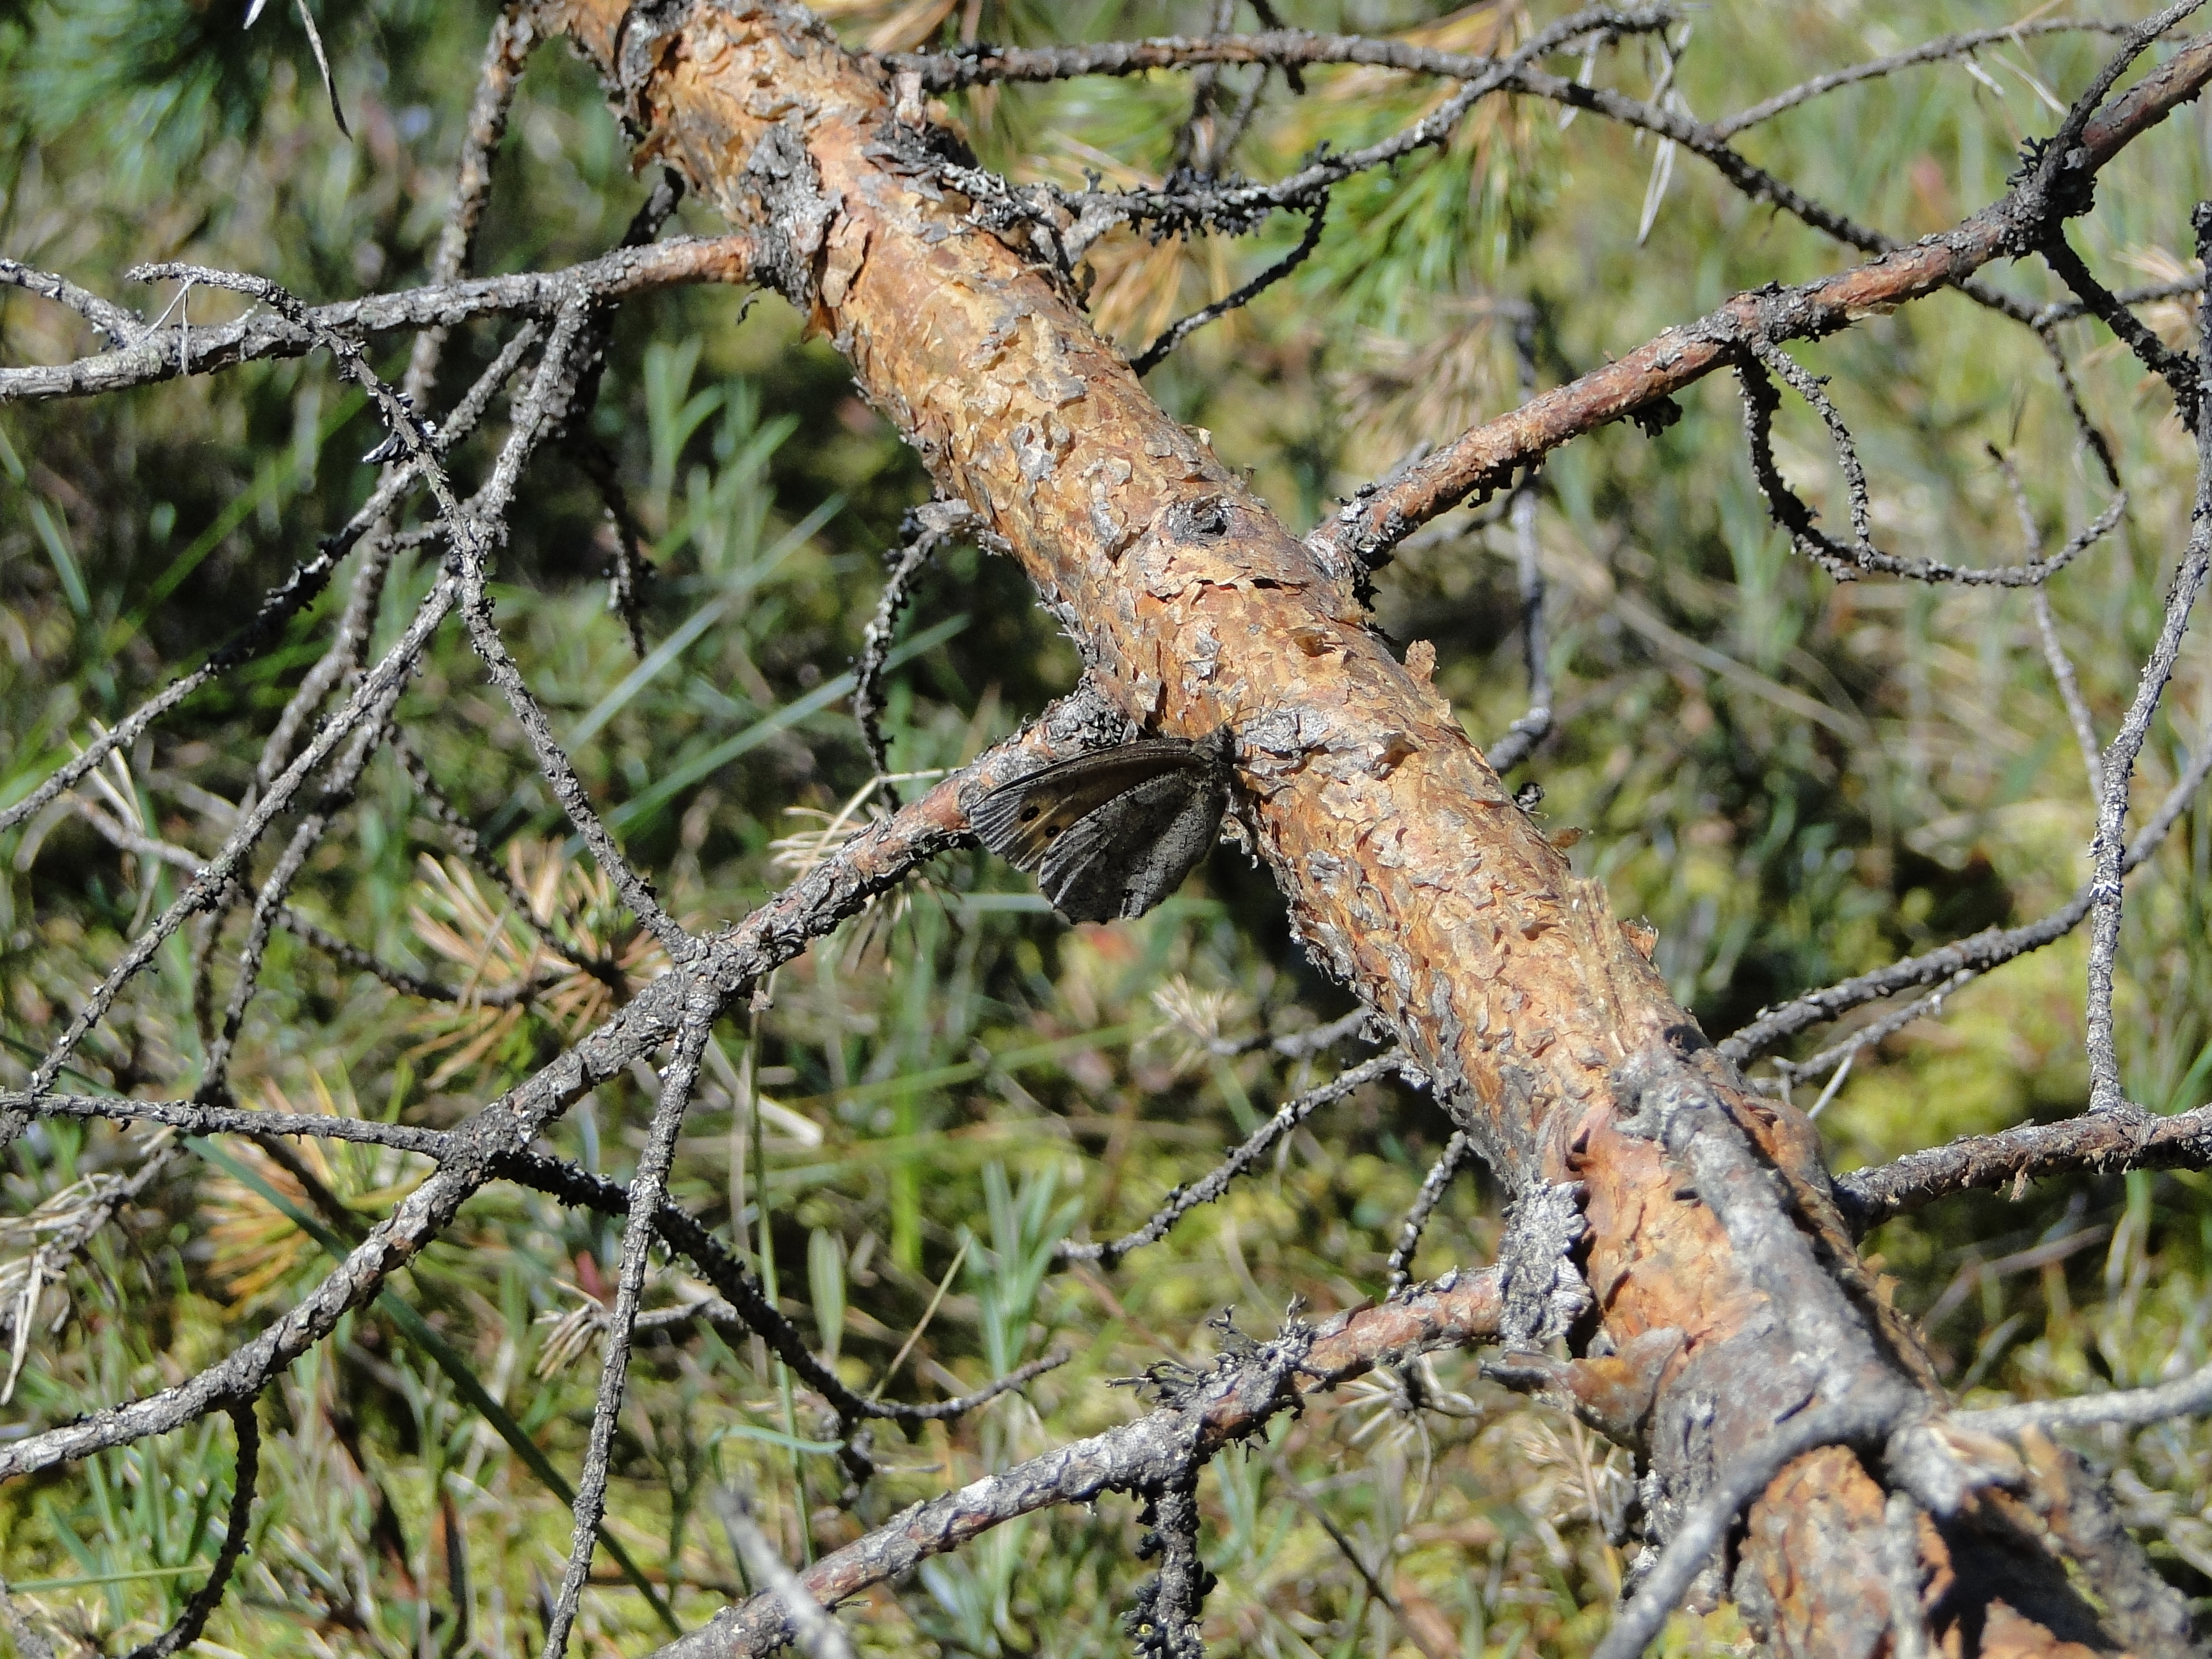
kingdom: Animalia
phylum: Arthropoda
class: Insecta
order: Lepidoptera
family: Nymphalidae
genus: Oeneis
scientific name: Oeneis jutta
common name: Baltic grayling
